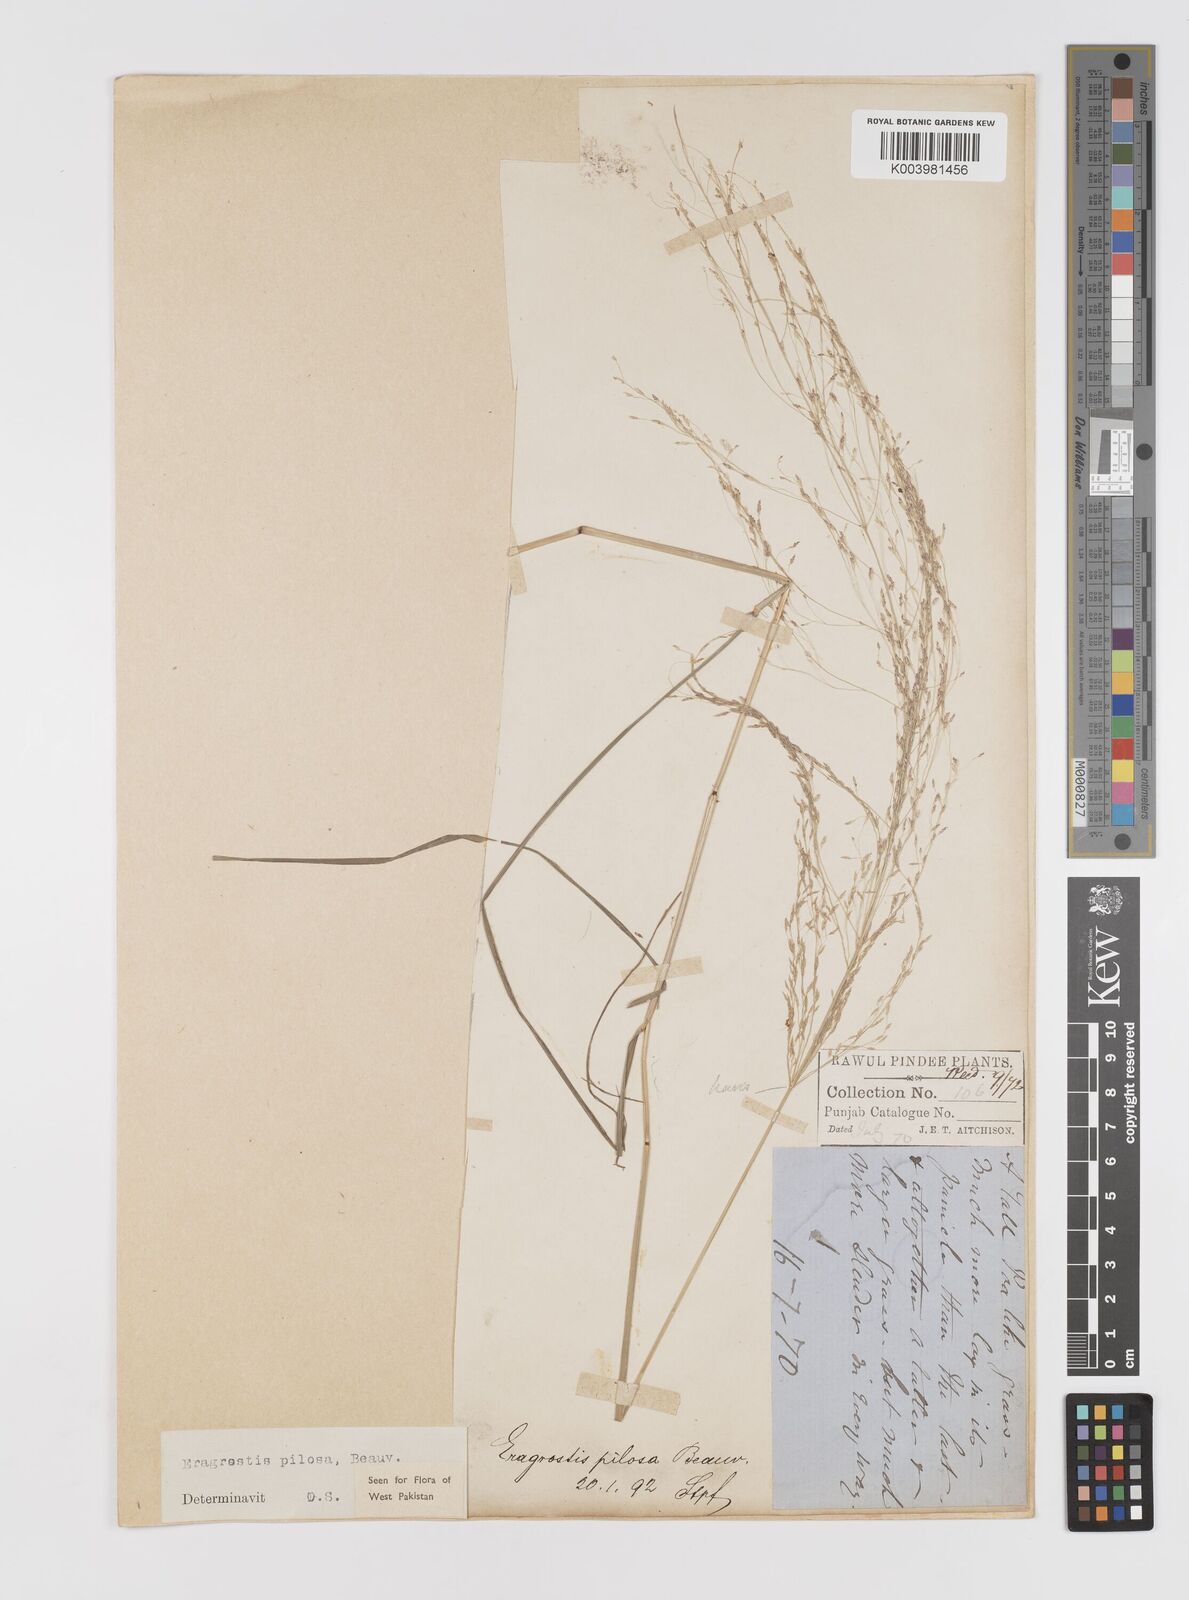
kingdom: Plantae
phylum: Tracheophyta
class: Liliopsida
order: Poales
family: Poaceae
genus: Eragrostis
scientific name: Eragrostis pilosa
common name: Indian lovegrass
